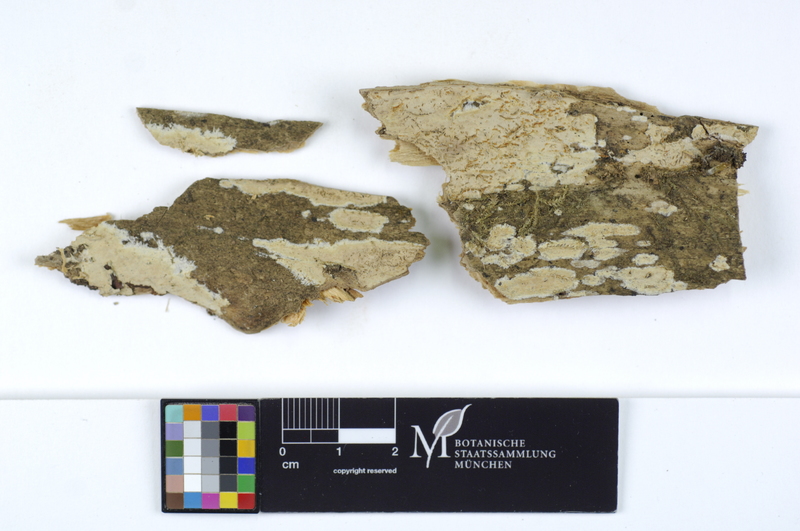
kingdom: Fungi
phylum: Basidiomycota
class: Agaricomycetes
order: Cantharellales
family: Clavulinaceae
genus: Clavulicium
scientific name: Clavulicium macounii
